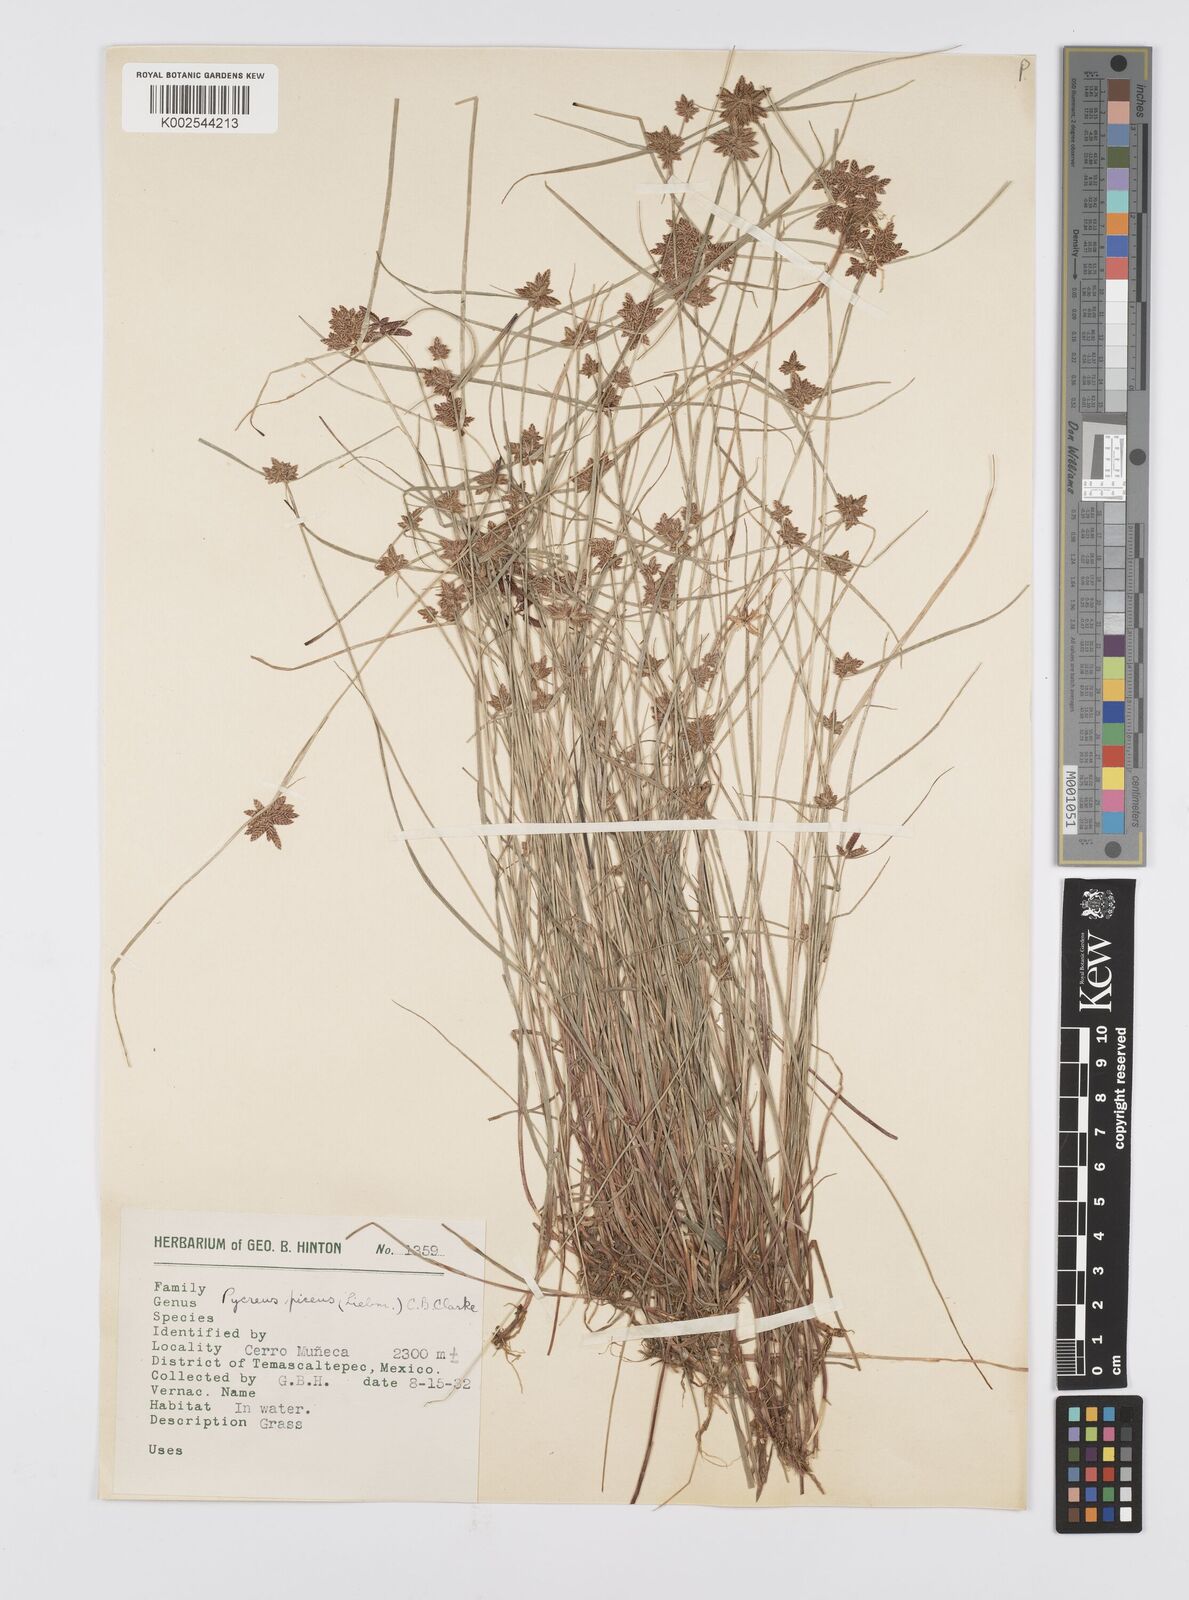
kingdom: Plantae
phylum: Tracheophyta
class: Liliopsida
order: Poales
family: Cyperaceae
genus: Cyperus
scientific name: Cyperus flavescens
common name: Yellow galingale
